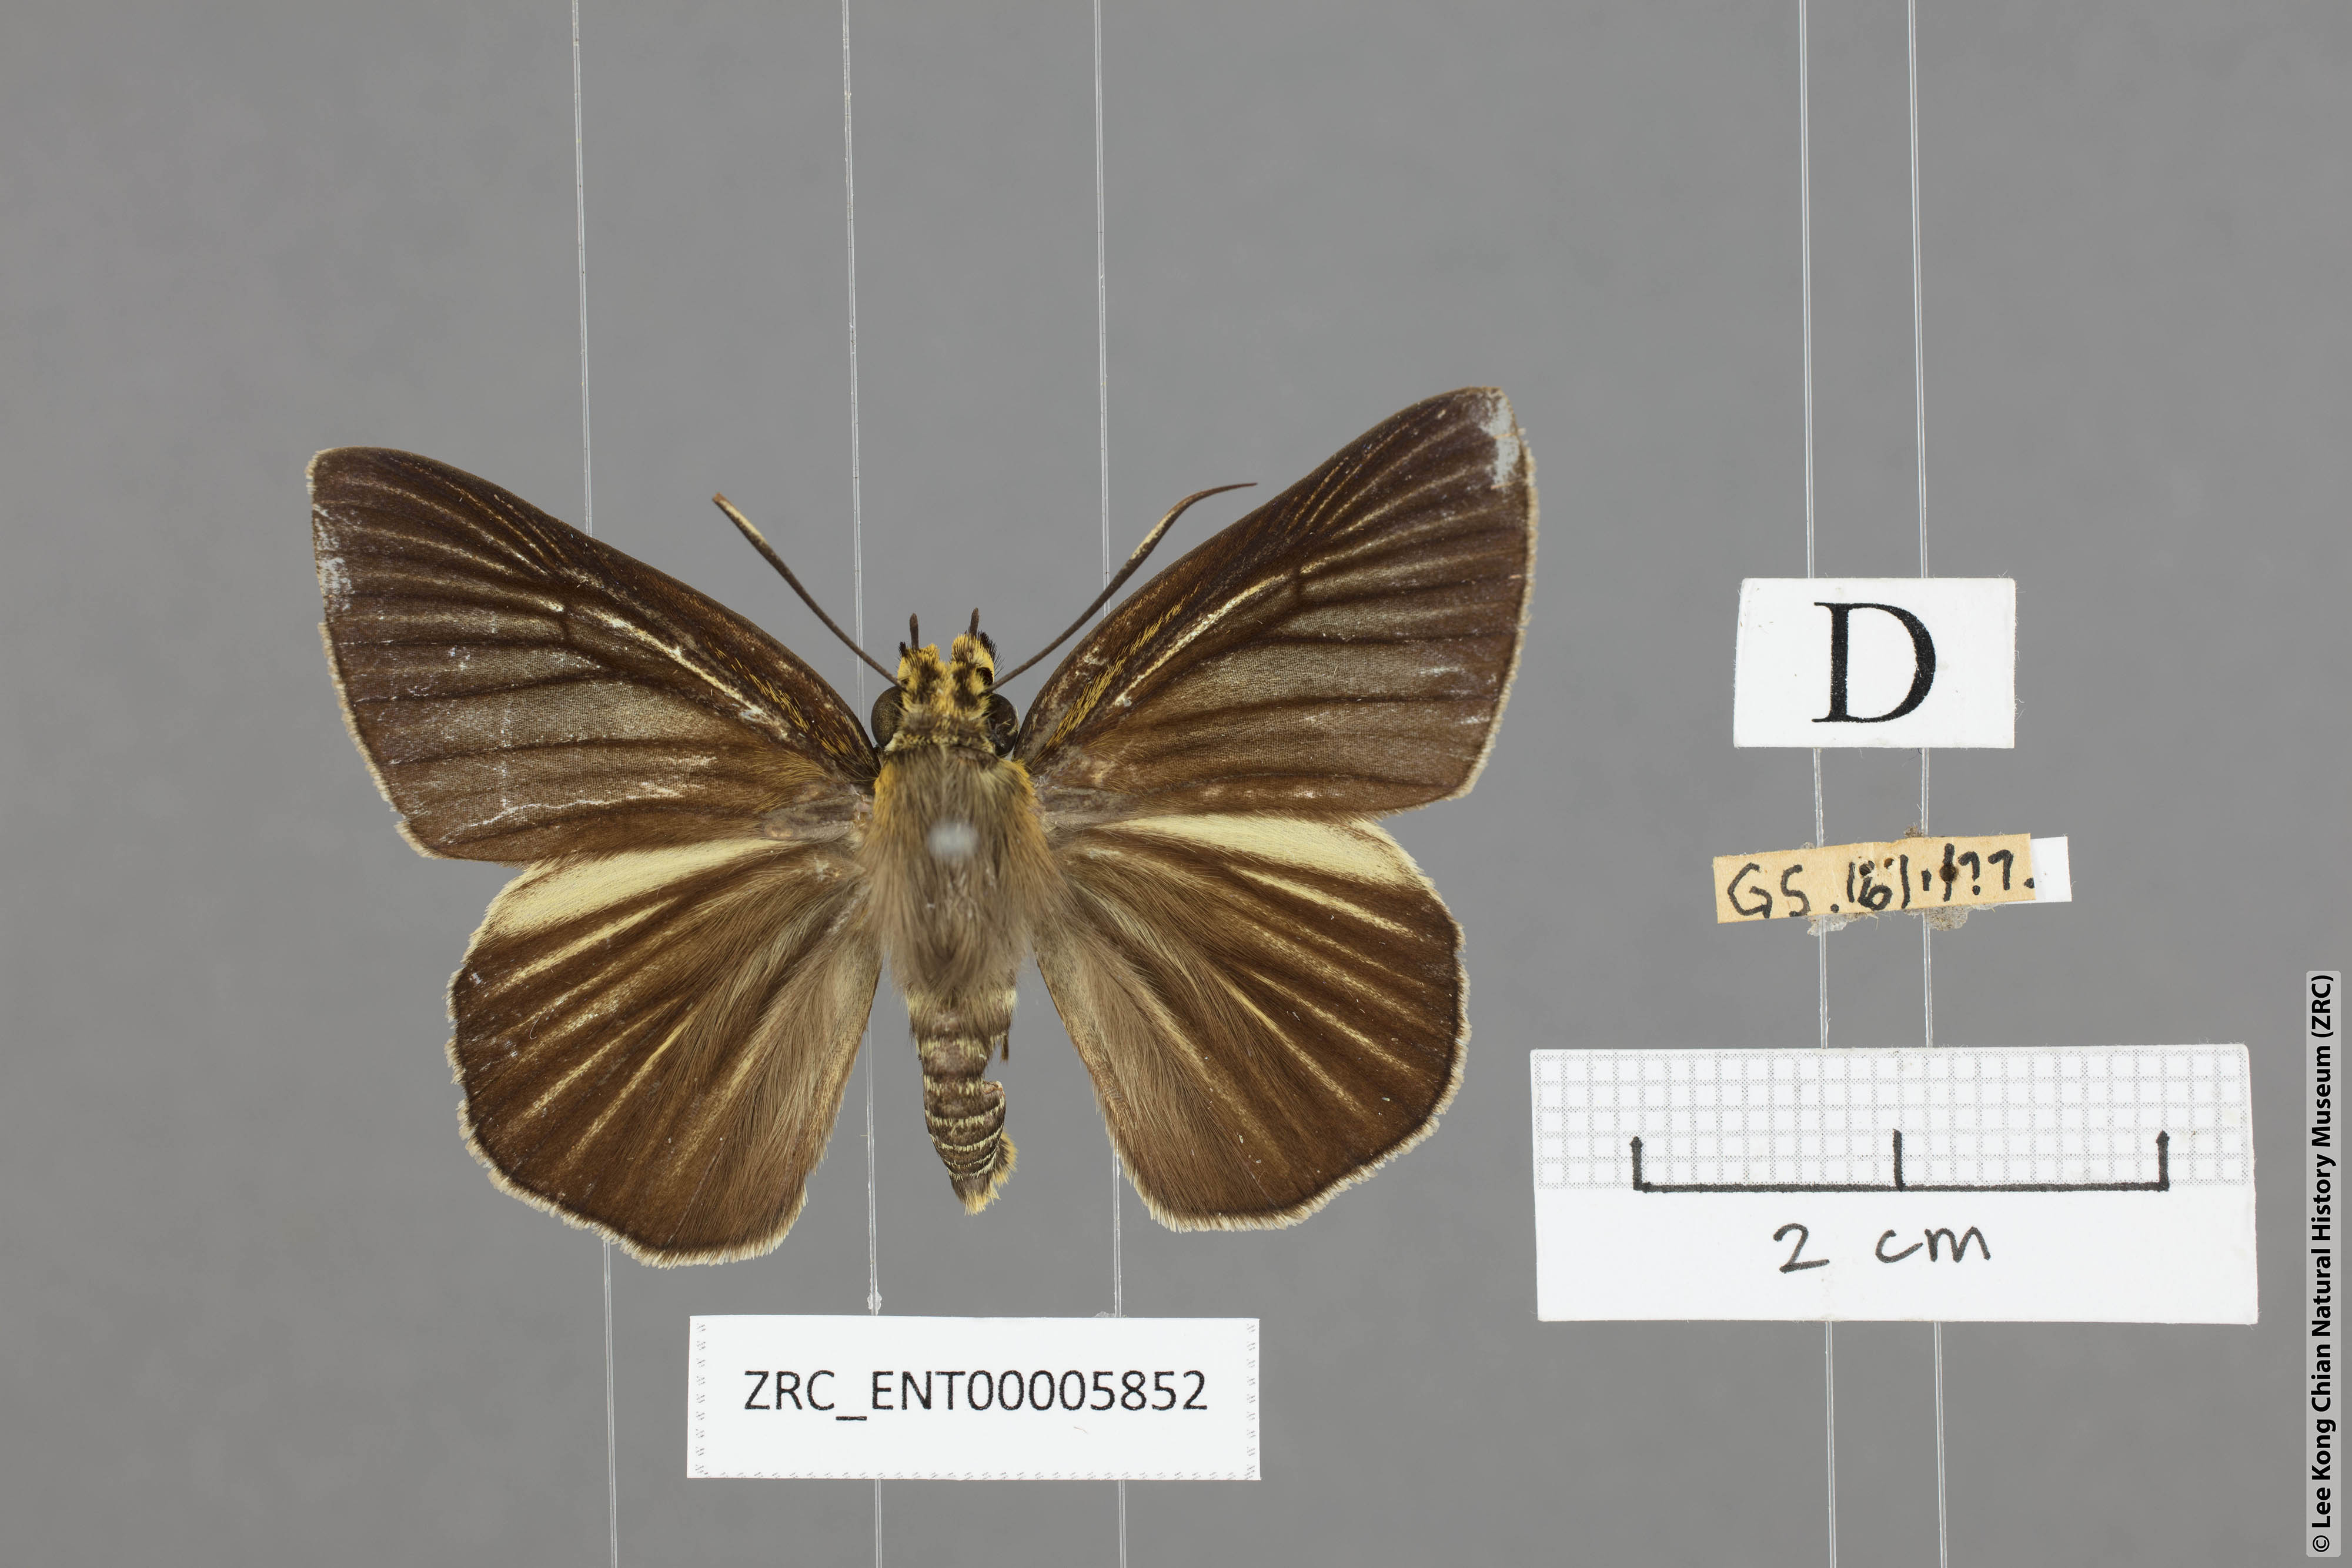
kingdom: Animalia
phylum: Arthropoda
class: Insecta
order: Lepidoptera
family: Hesperiidae
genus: Bibasis
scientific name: Bibasis gomata
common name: Pale green awlet
